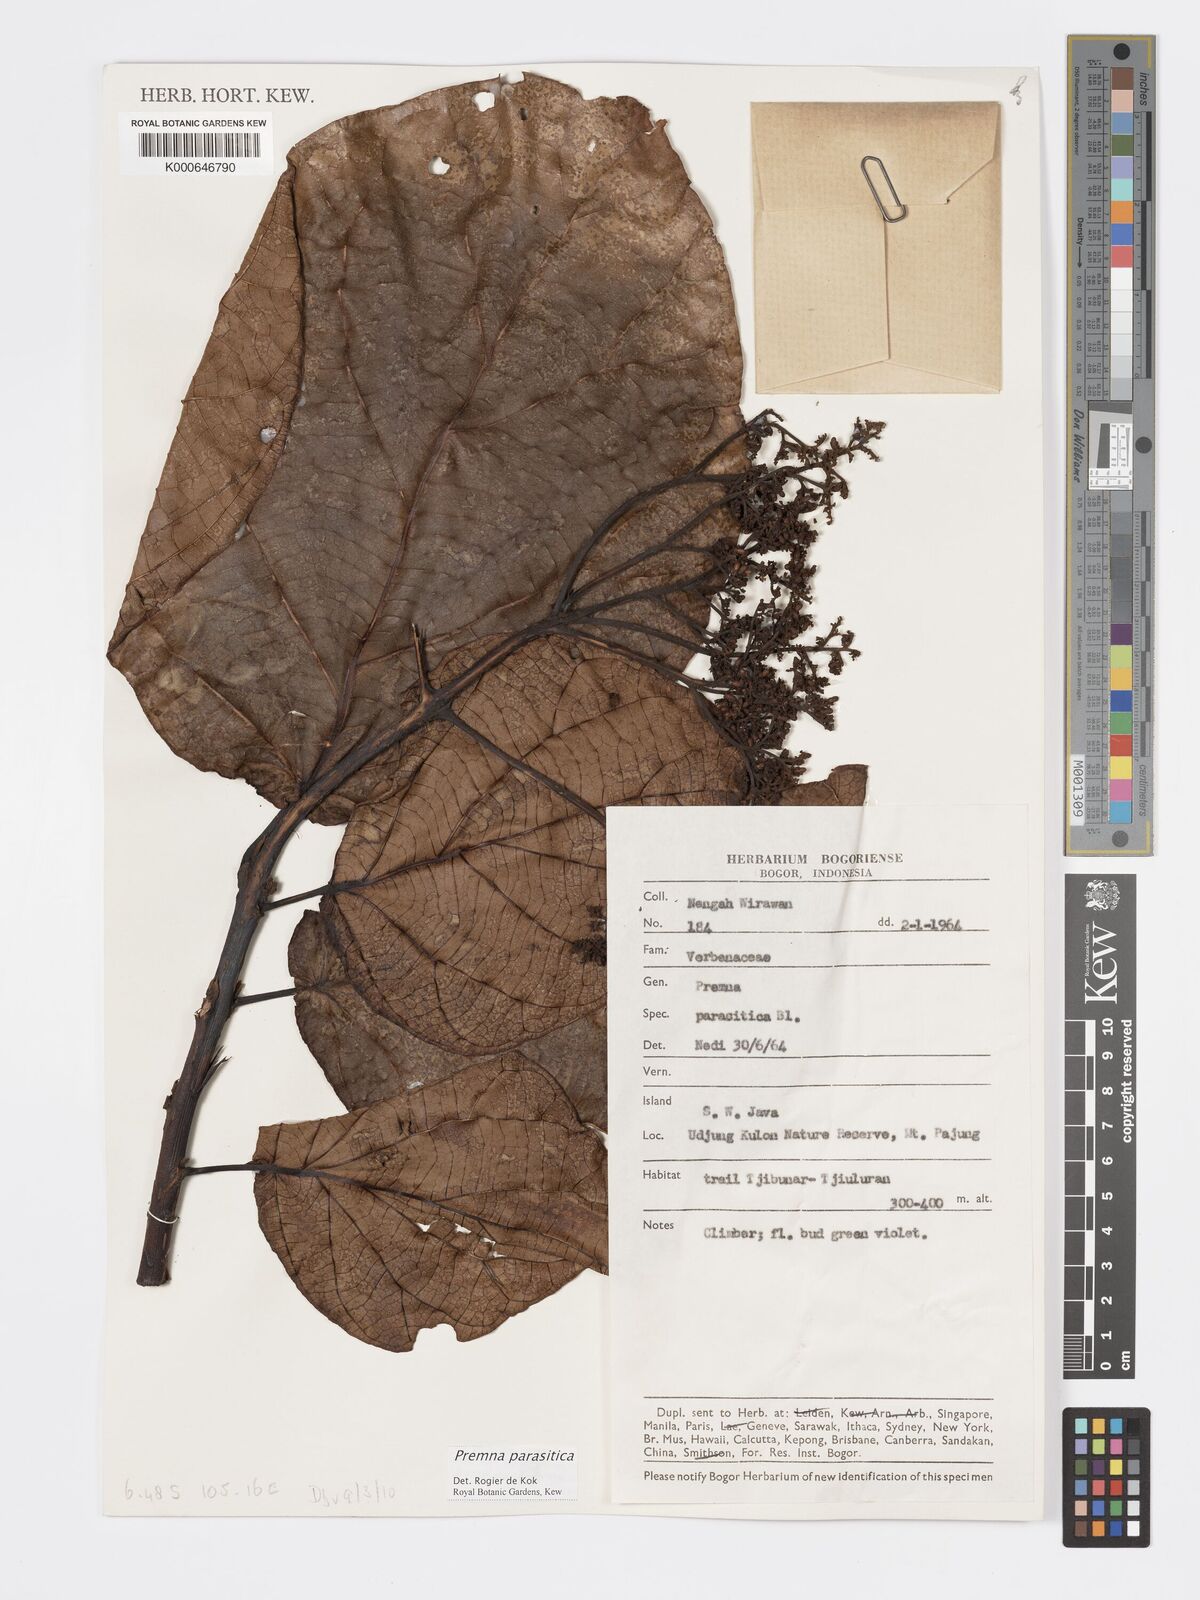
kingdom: Plantae
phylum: Tracheophyta
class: Magnoliopsida
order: Lamiales
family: Lamiaceae
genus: Premna
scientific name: Premna parasitica
